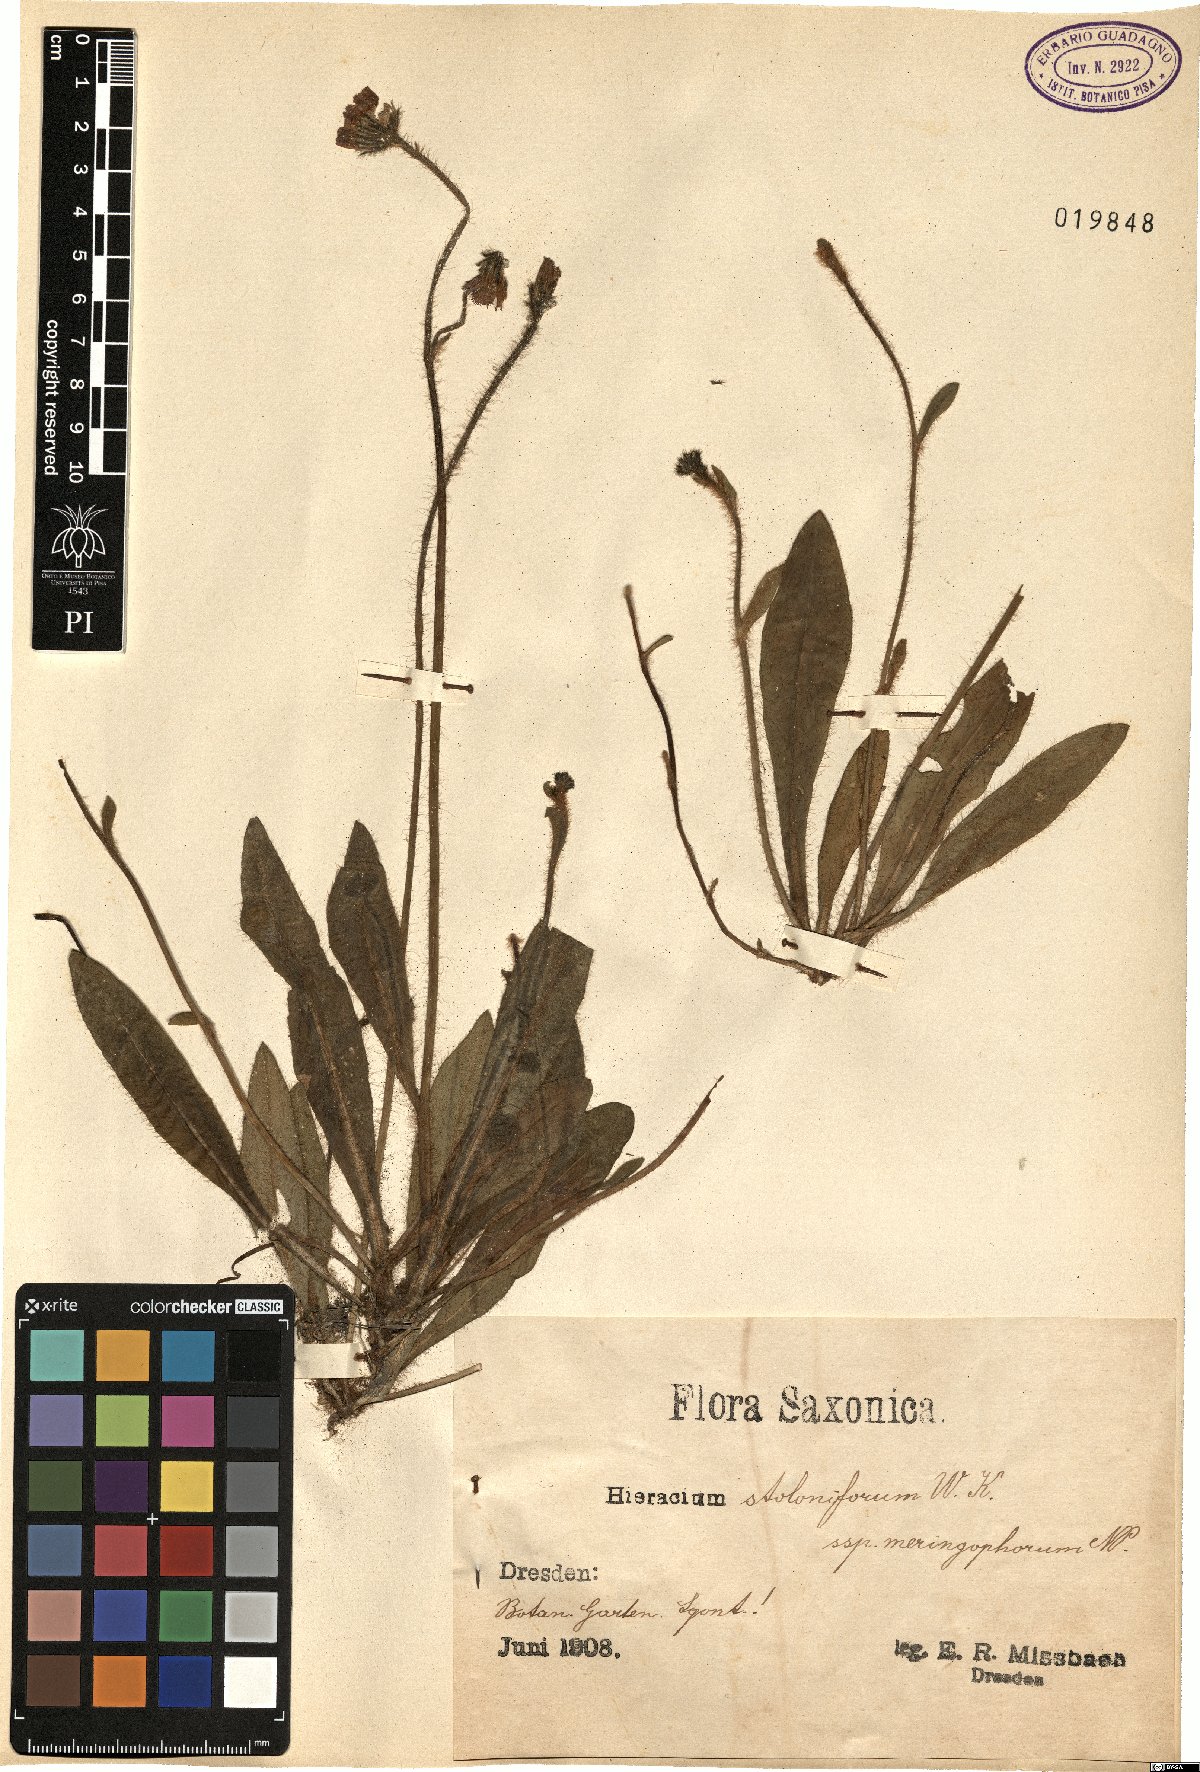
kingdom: Plantae
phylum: Tracheophyta
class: Magnoliopsida
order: Asterales
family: Asteraceae
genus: Pilosella
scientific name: Pilosella stoloniflora
